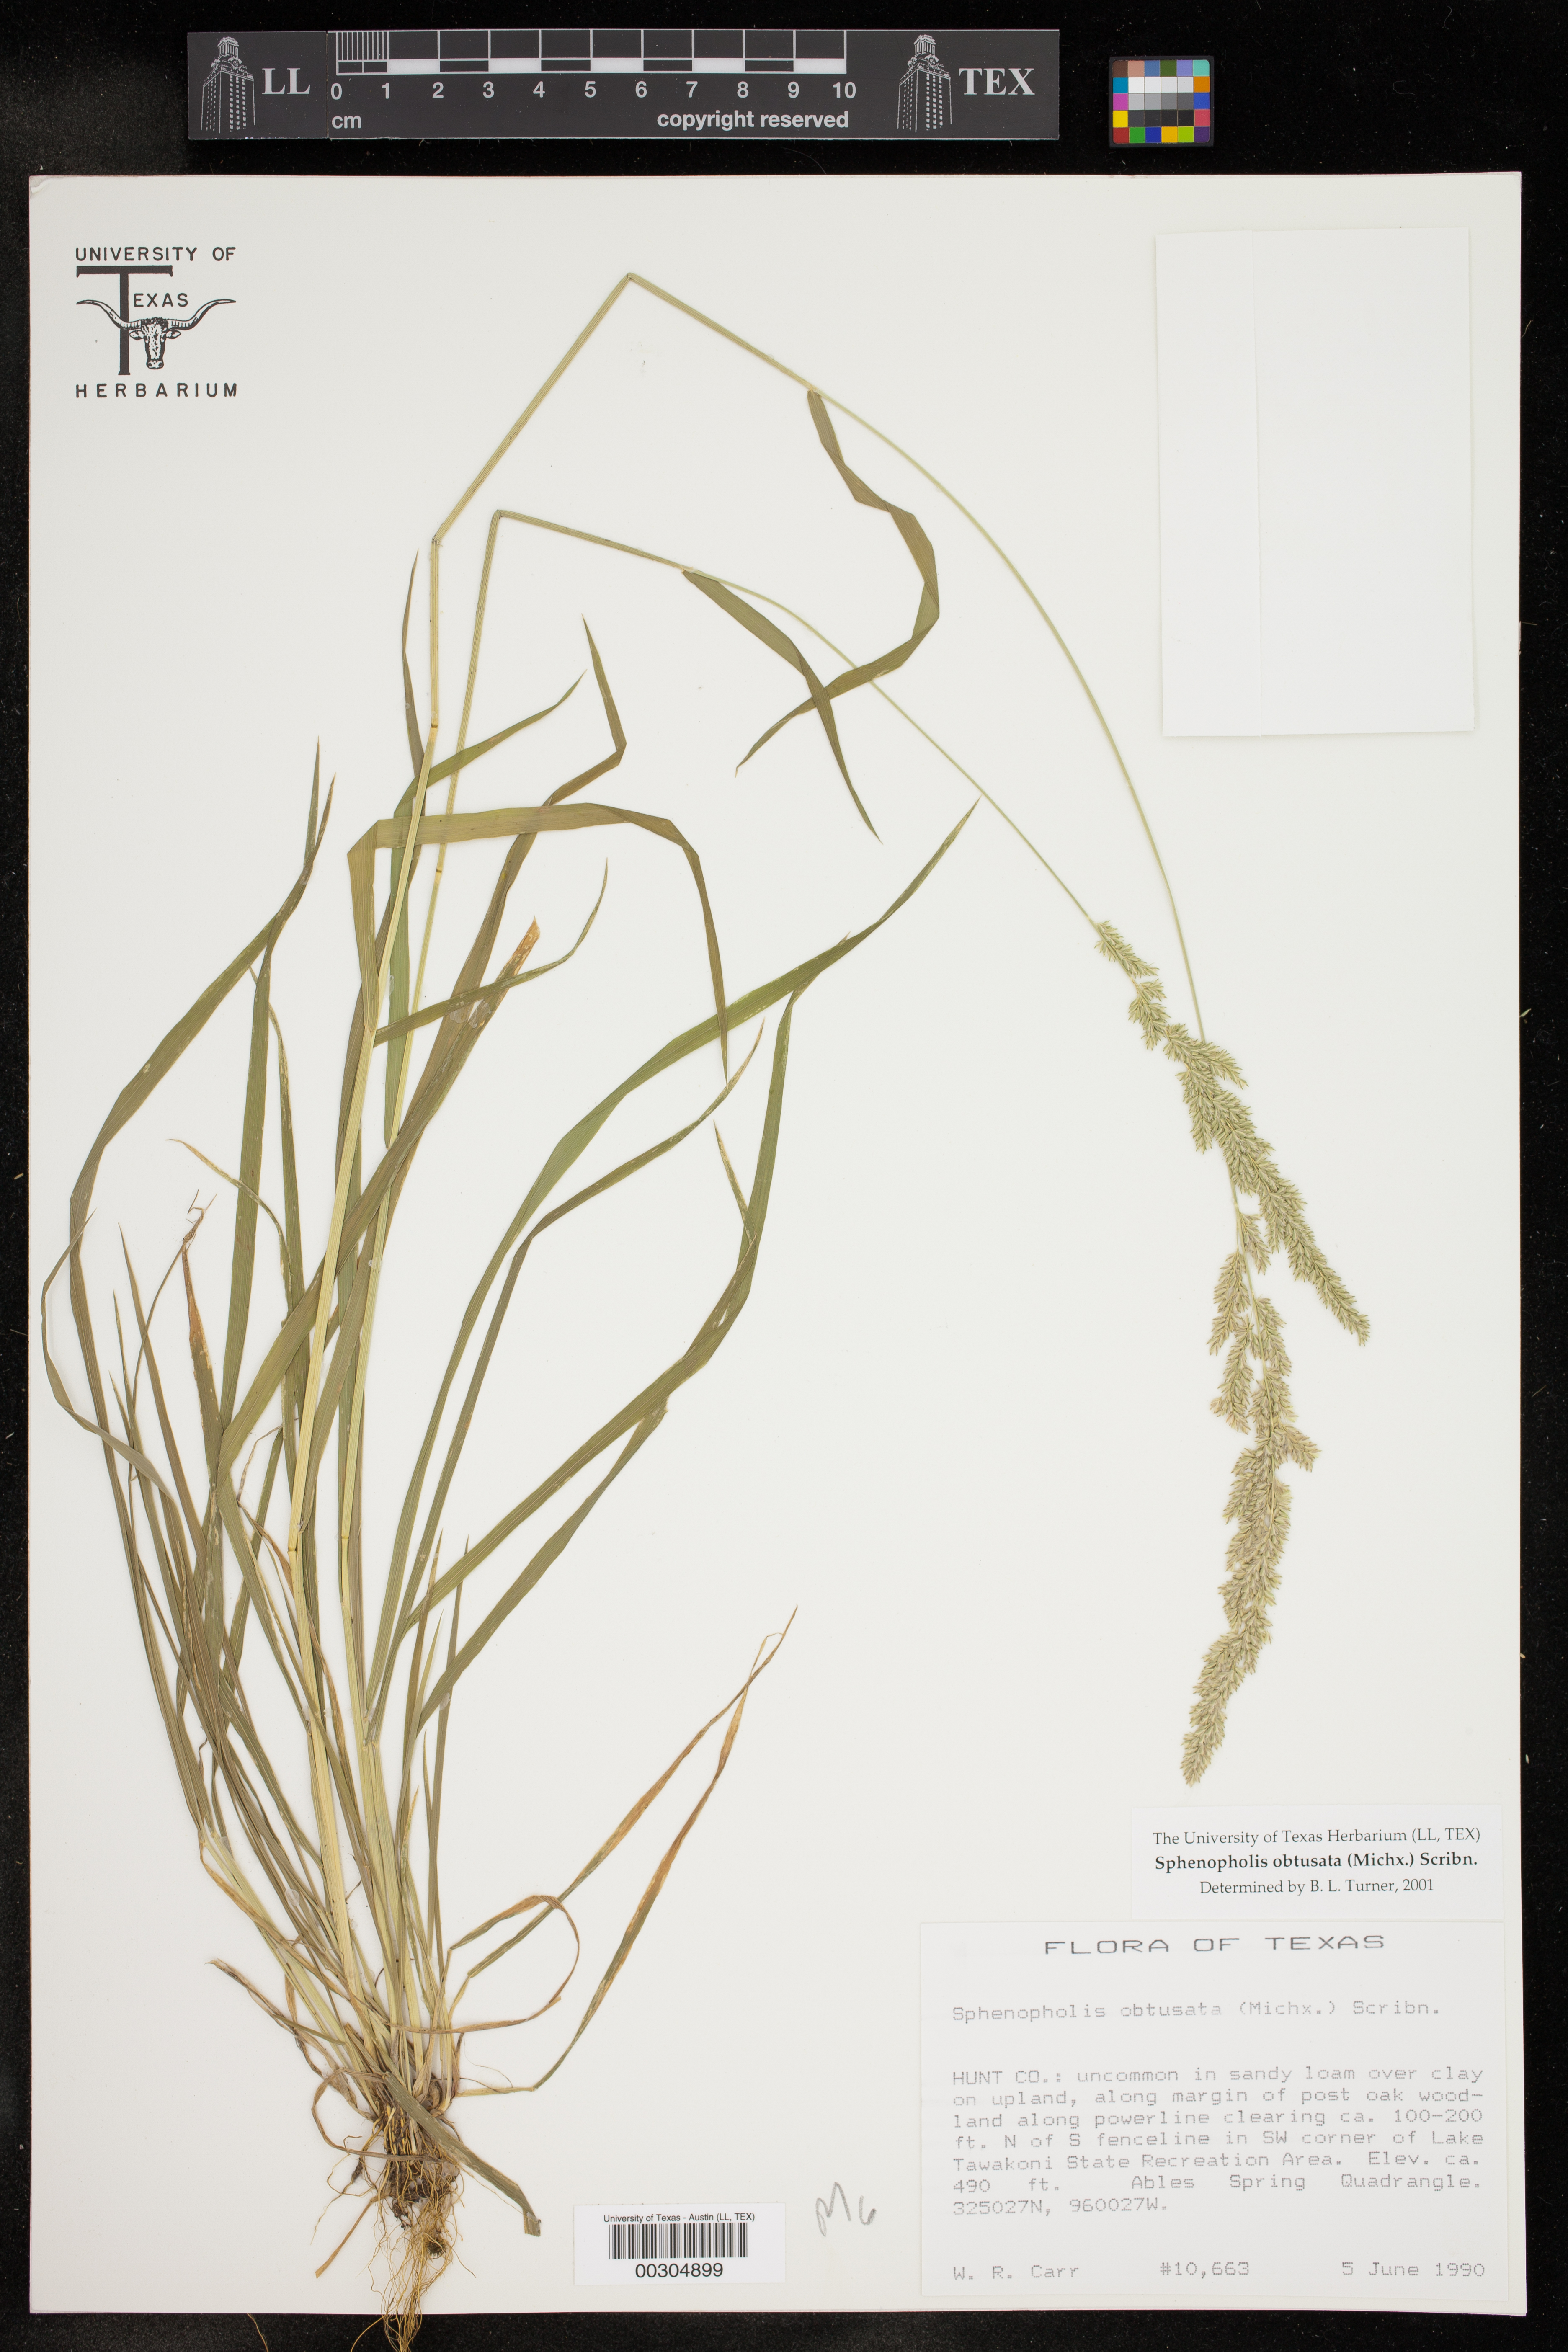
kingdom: Plantae
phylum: Tracheophyta
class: Liliopsida
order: Poales
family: Poaceae
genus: Sphenopholis
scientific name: Sphenopholis obtusata
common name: Prairie grass
